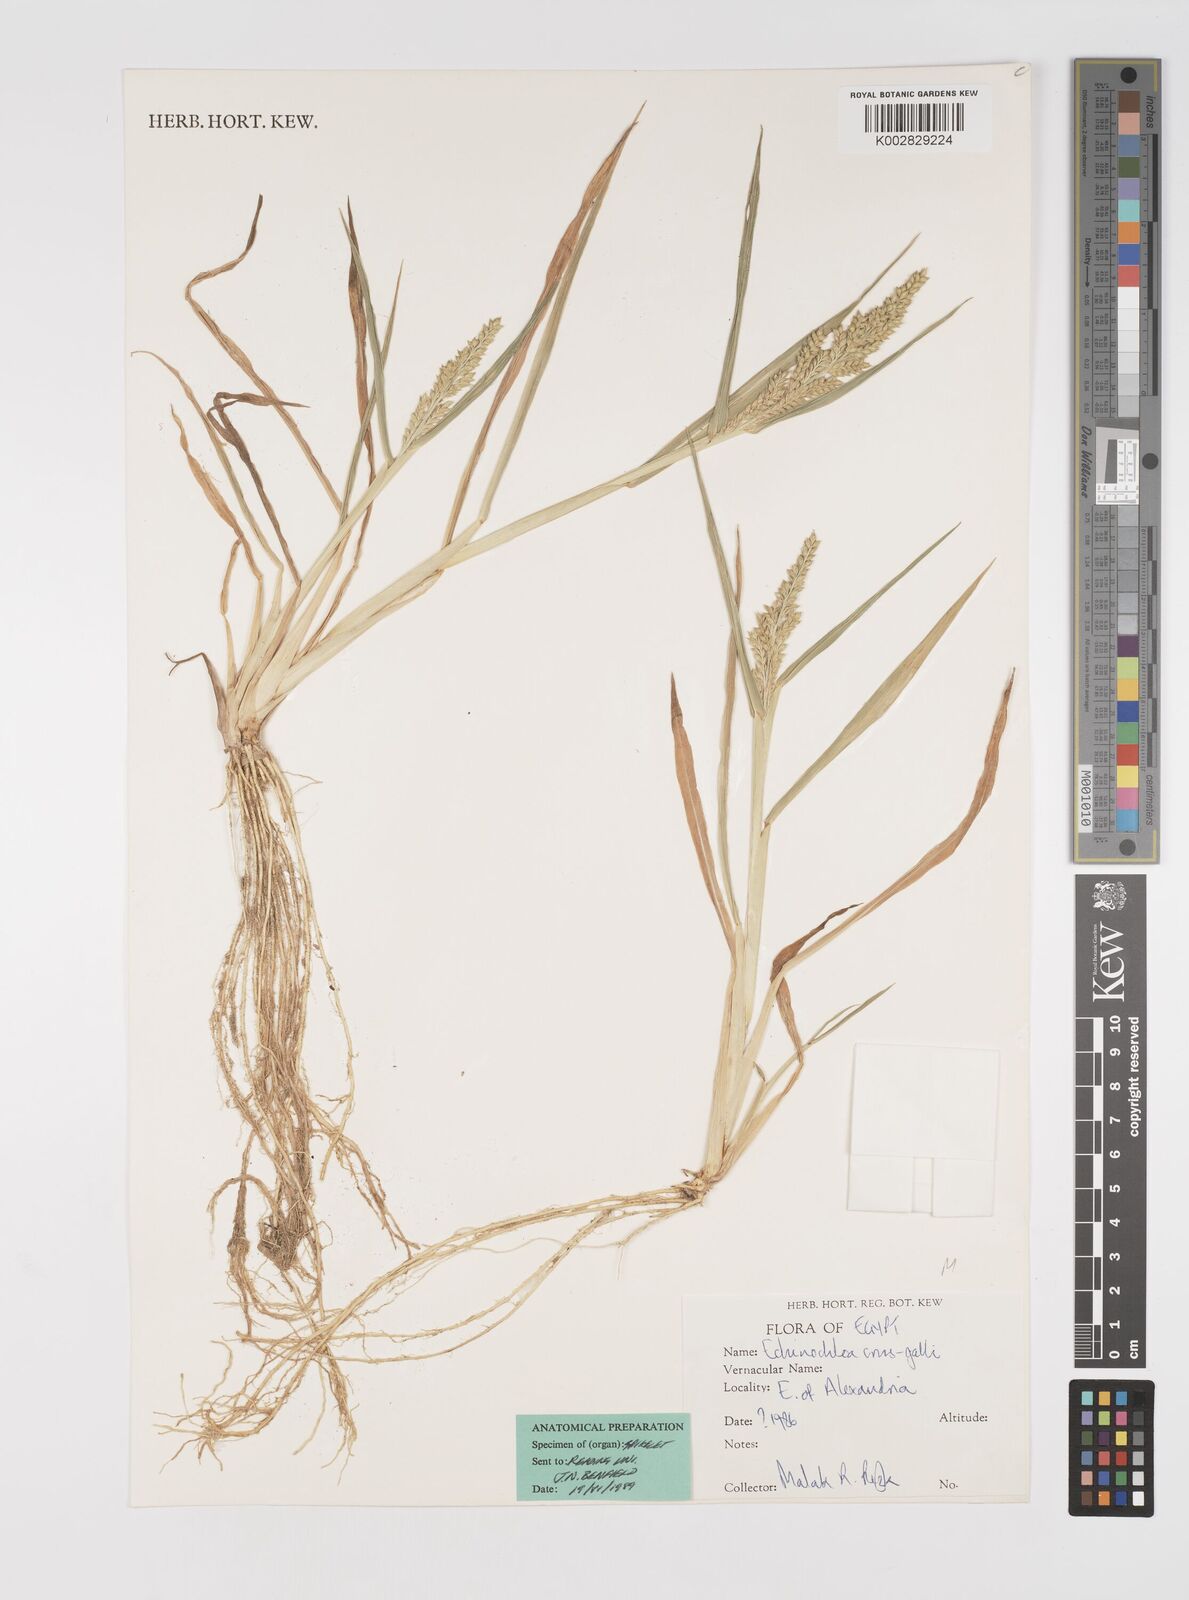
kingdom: Plantae
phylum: Tracheophyta
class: Liliopsida
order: Poales
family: Poaceae
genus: Echinochloa
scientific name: Echinochloa crus-galli
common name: Cockspur
